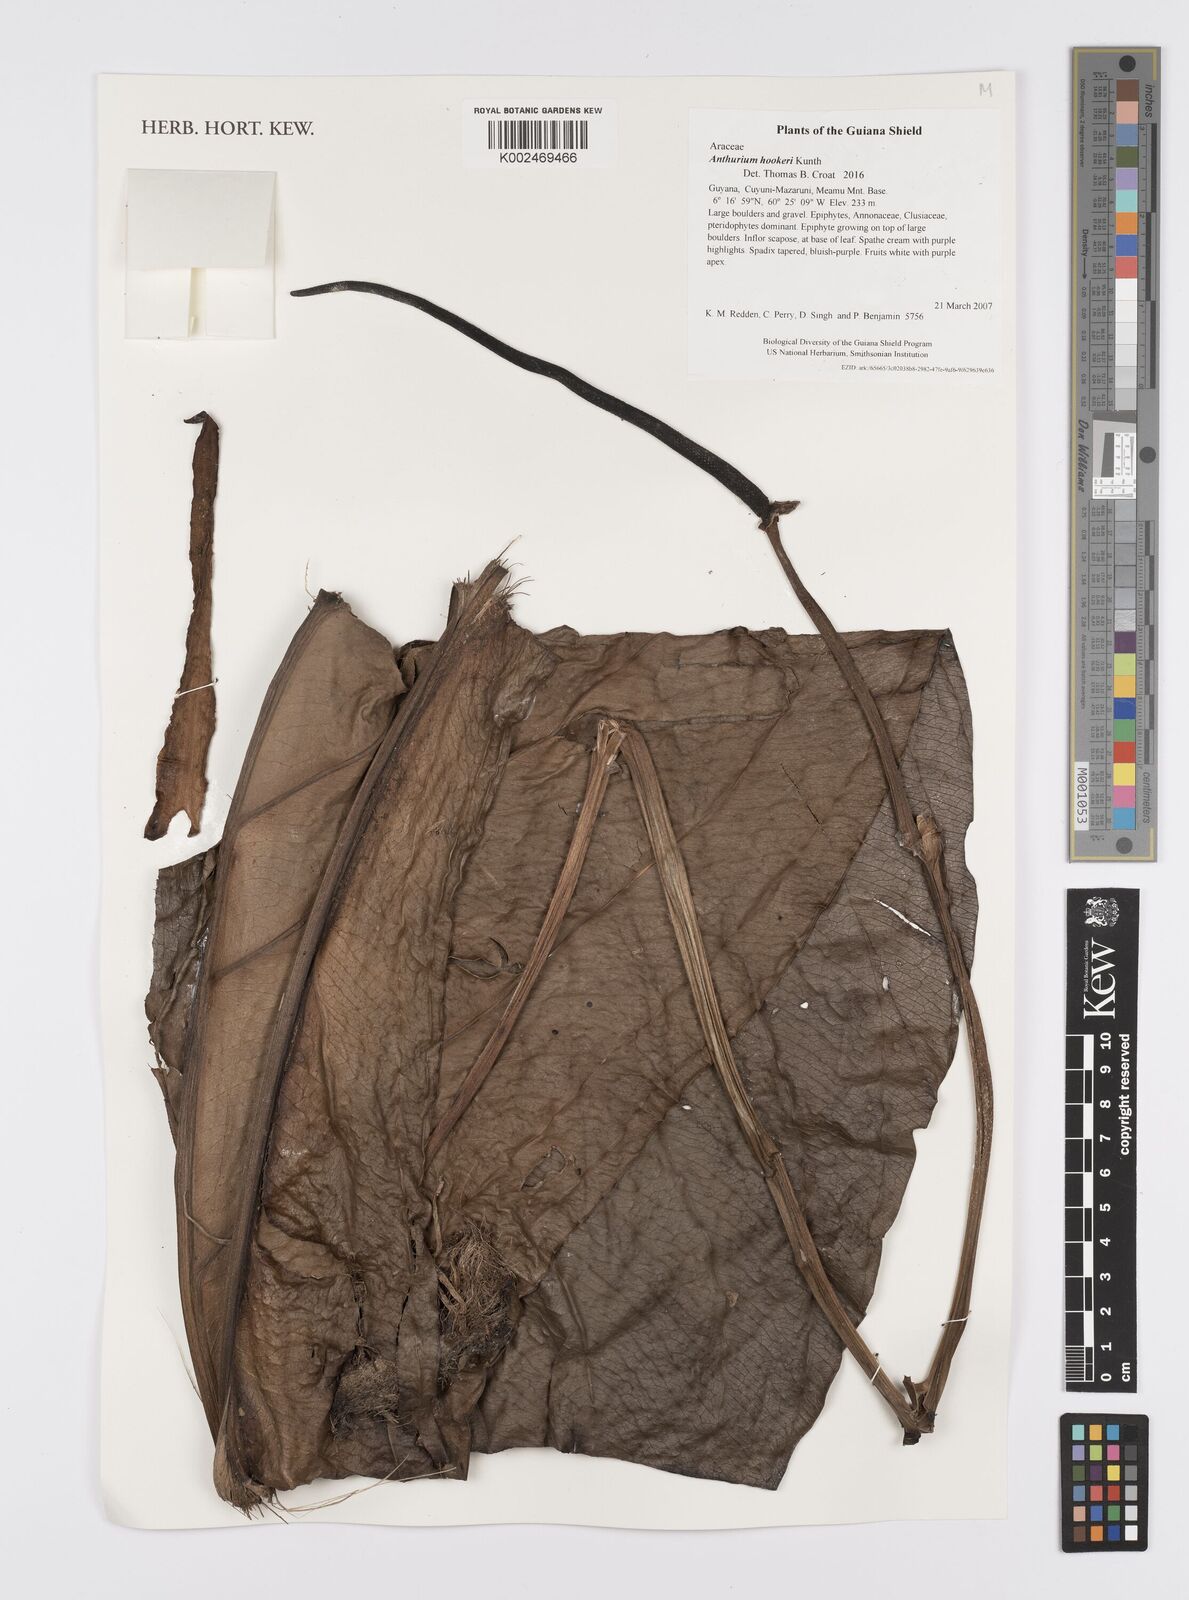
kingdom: Plantae
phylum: Tracheophyta
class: Liliopsida
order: Alismatales
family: Araceae
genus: Anthurium
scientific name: Anthurium hookeri
